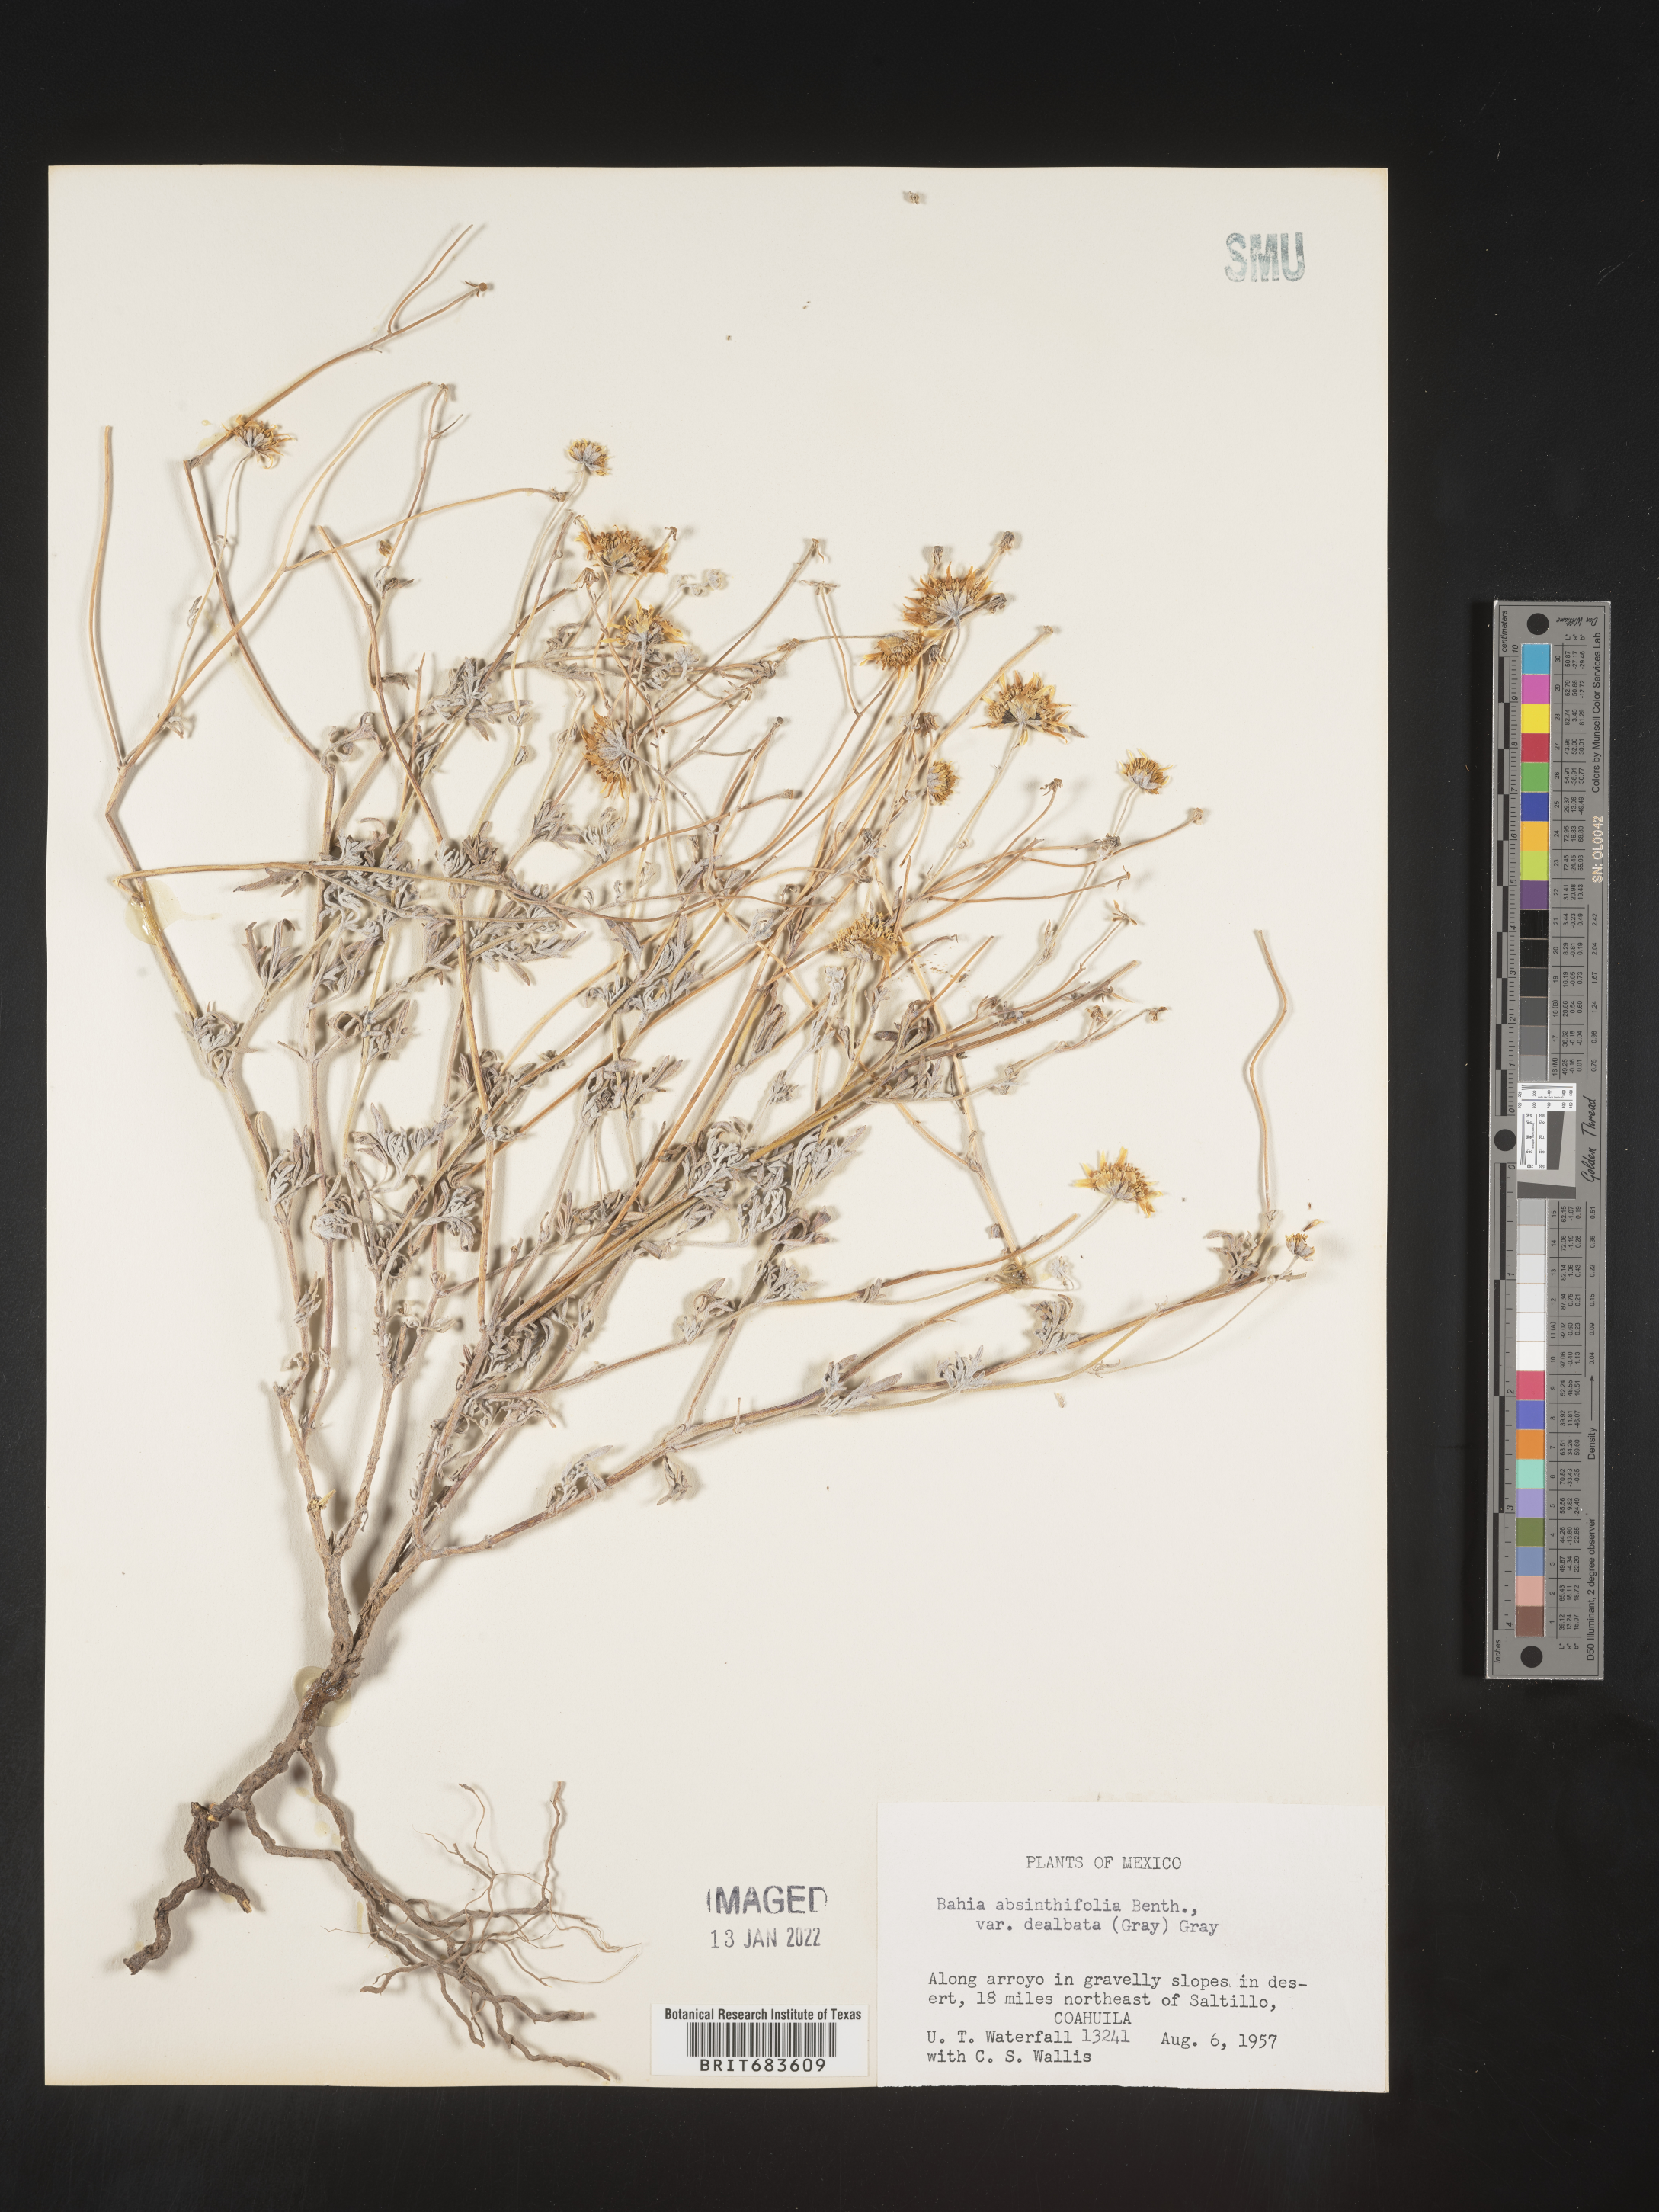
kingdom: Plantae
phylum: Tracheophyta
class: Magnoliopsida
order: Asterales
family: Asteraceae
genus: Picradeniopsis
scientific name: Picradeniopsis absinthifolia
